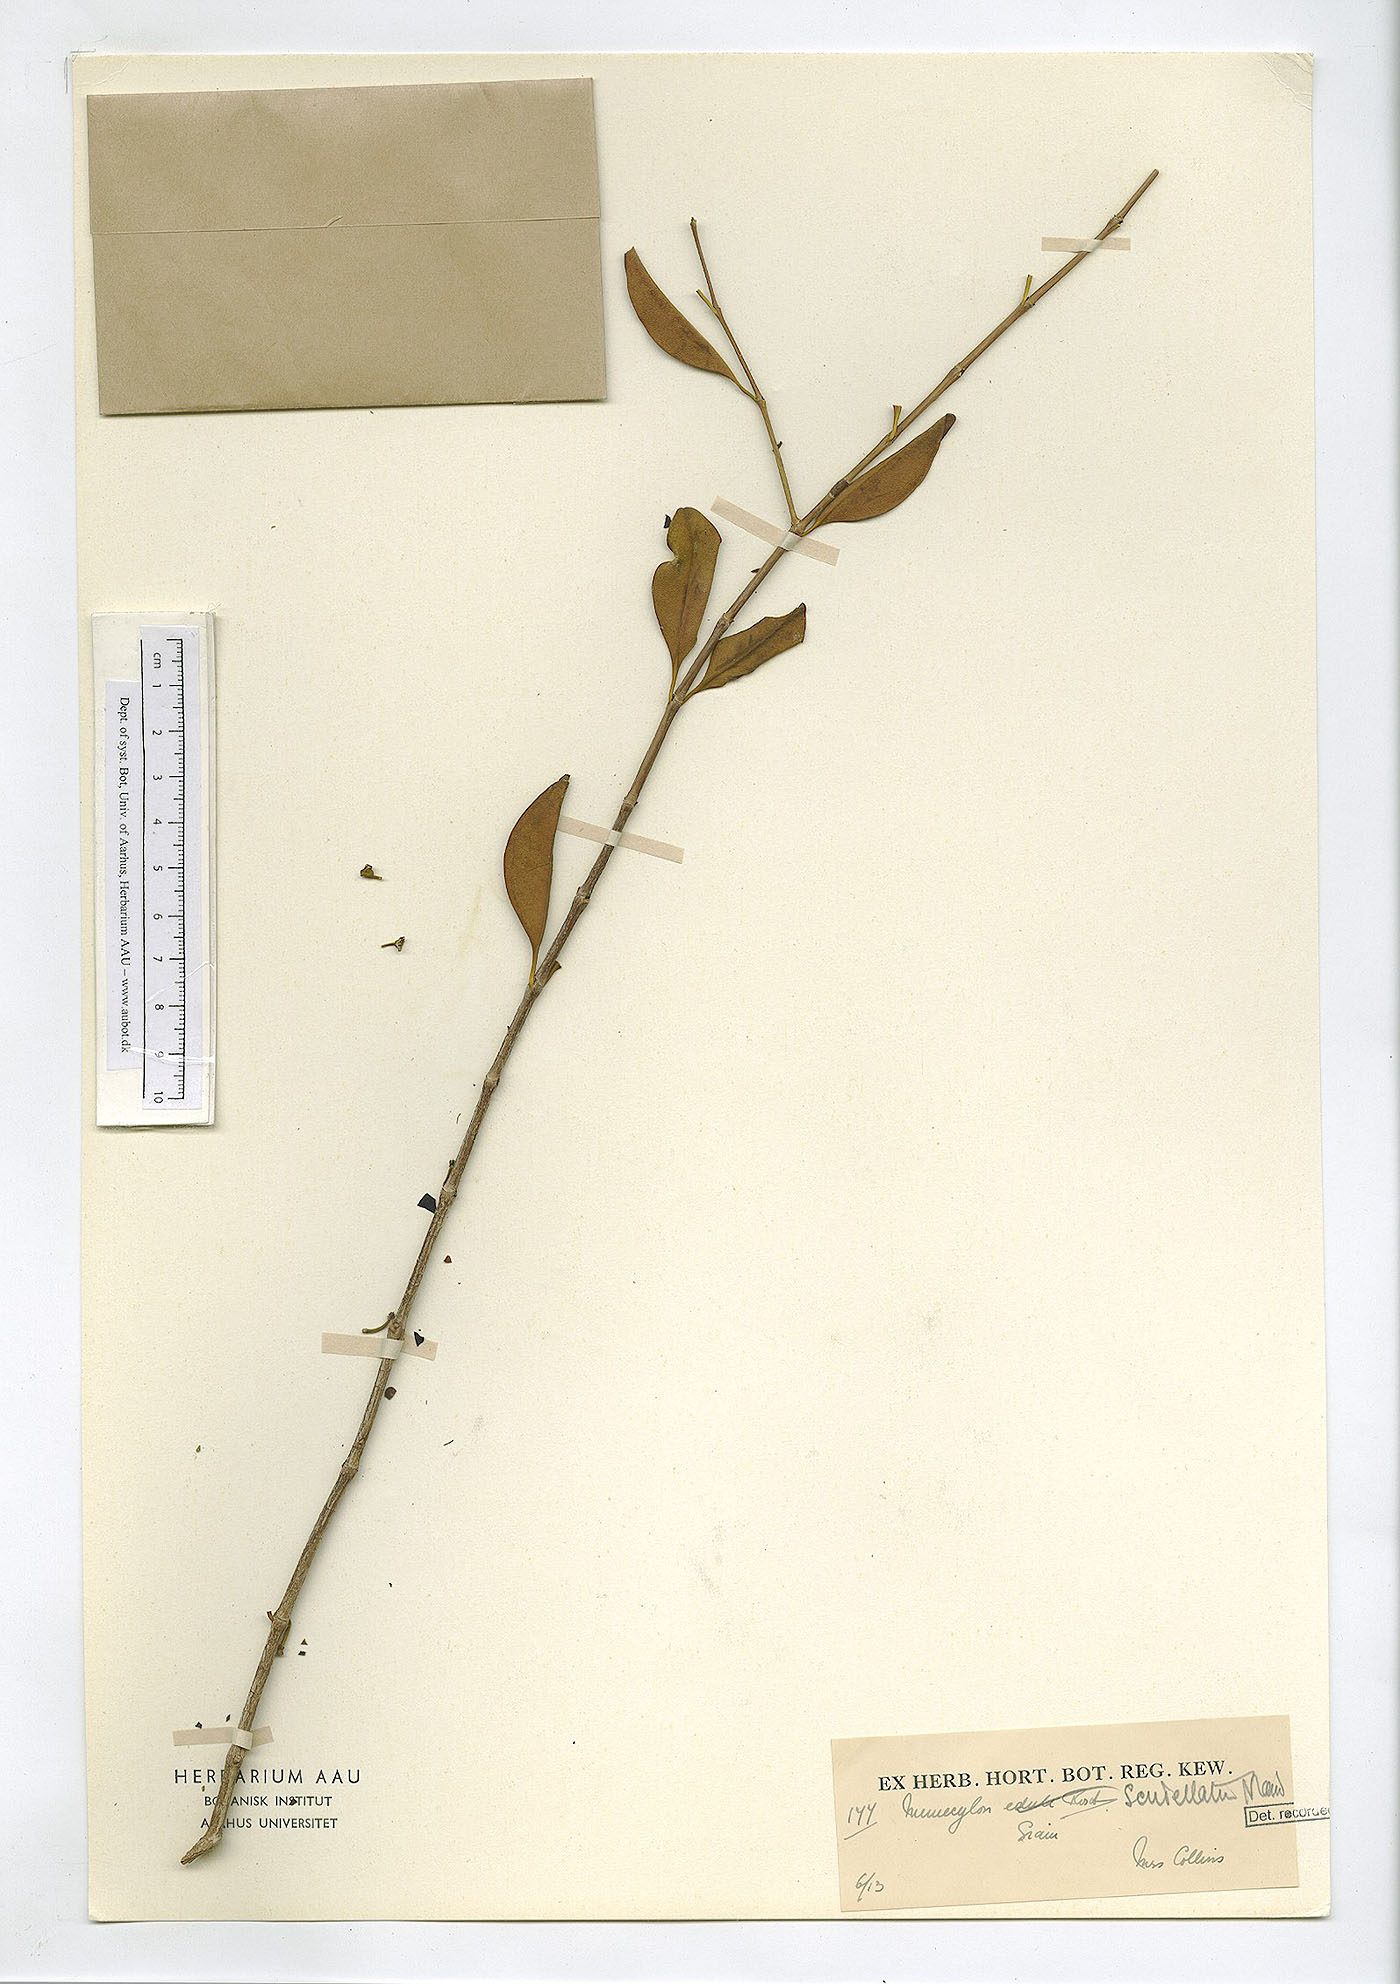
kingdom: Plantae
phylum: Tracheophyta
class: Magnoliopsida
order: Myrtales
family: Melastomataceae
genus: Memecylon
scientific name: Memecylon scutellatum
